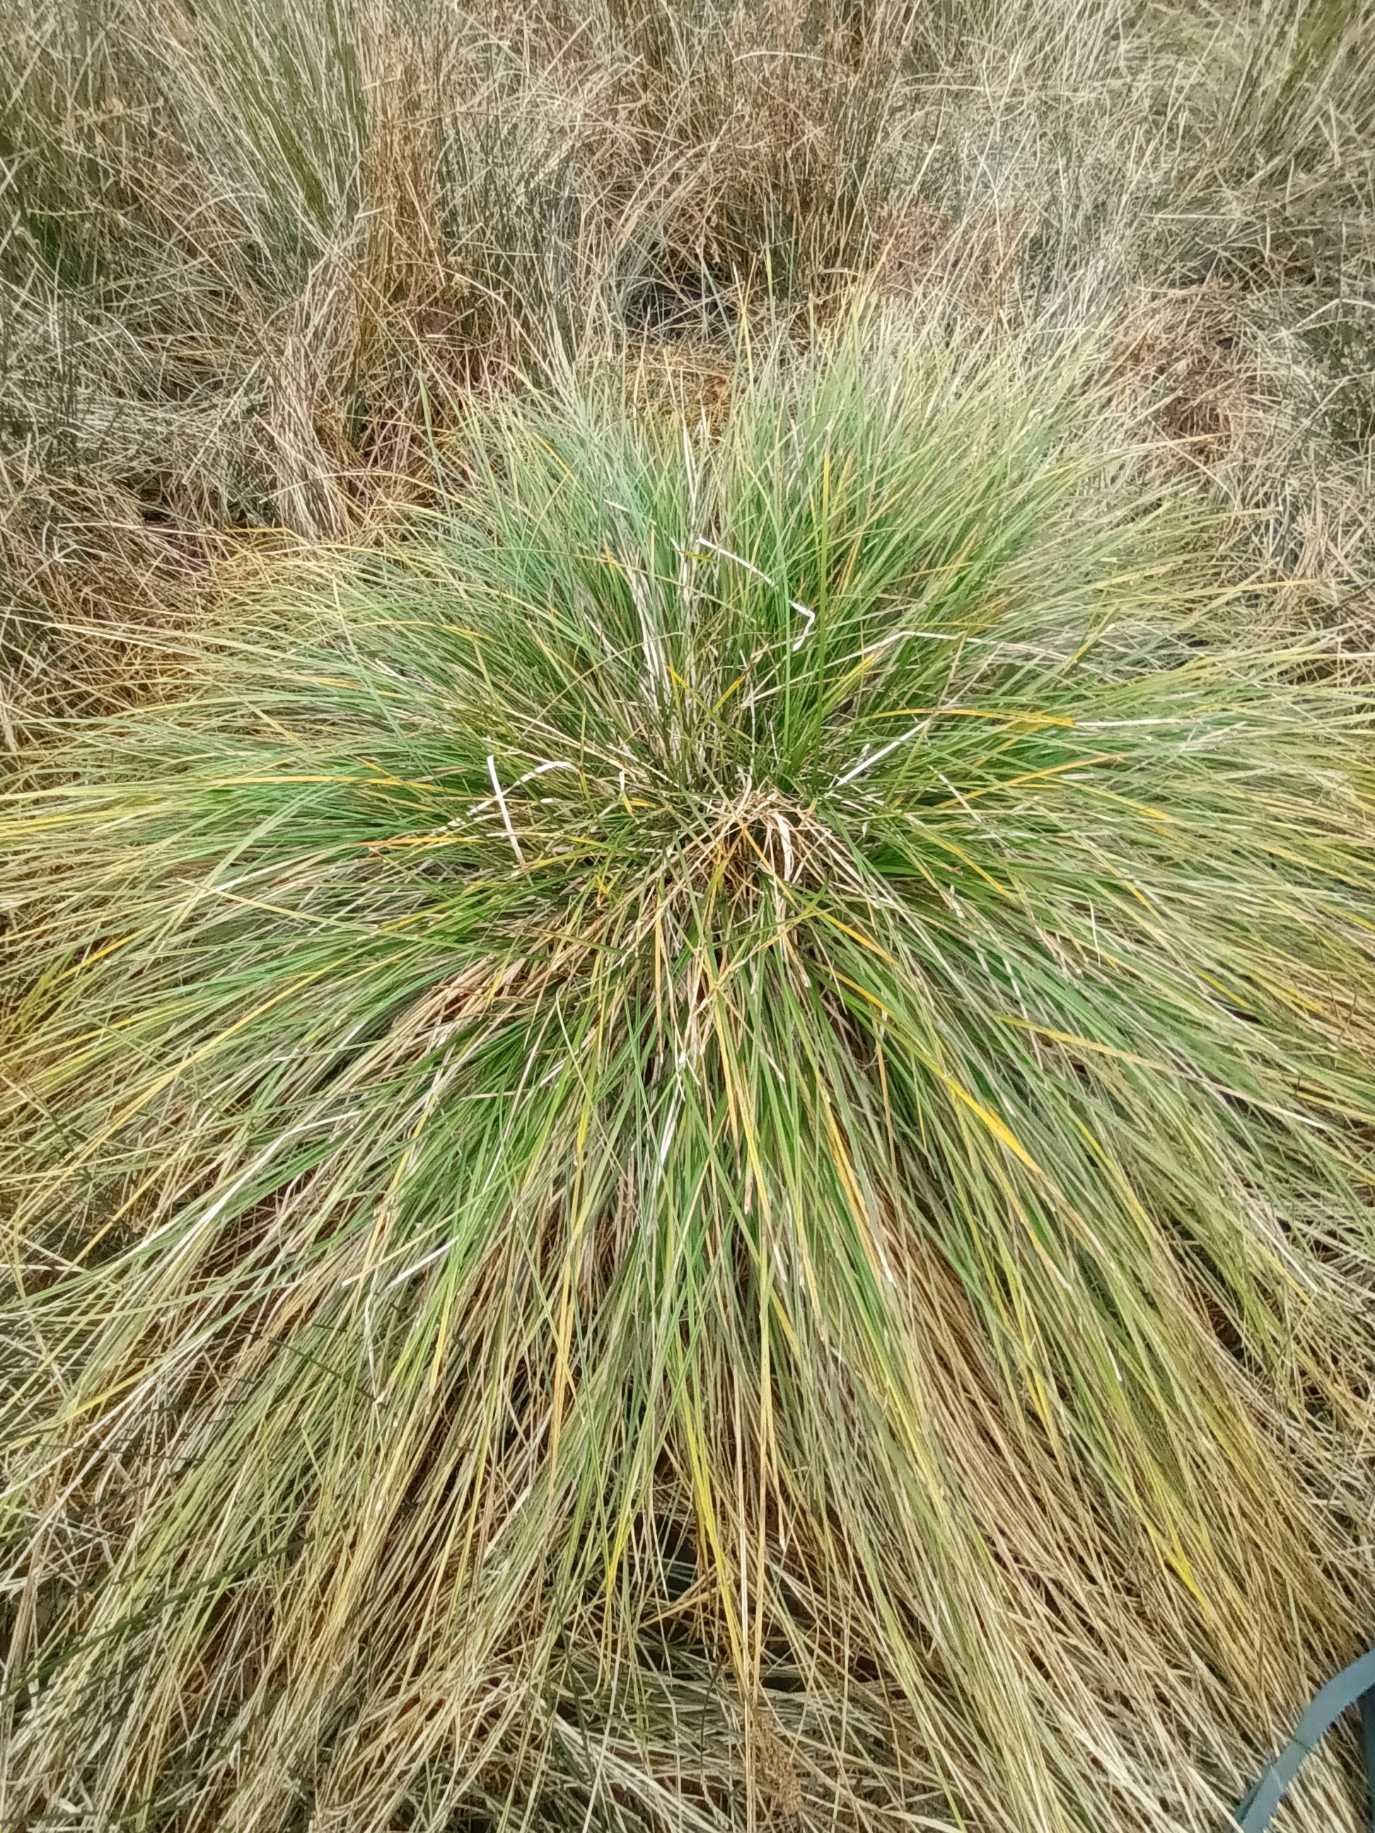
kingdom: Plantae
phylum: Tracheophyta
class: Liliopsida
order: Poales
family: Cyperaceae
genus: Carex
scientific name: Carex paniculata
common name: Top-star
